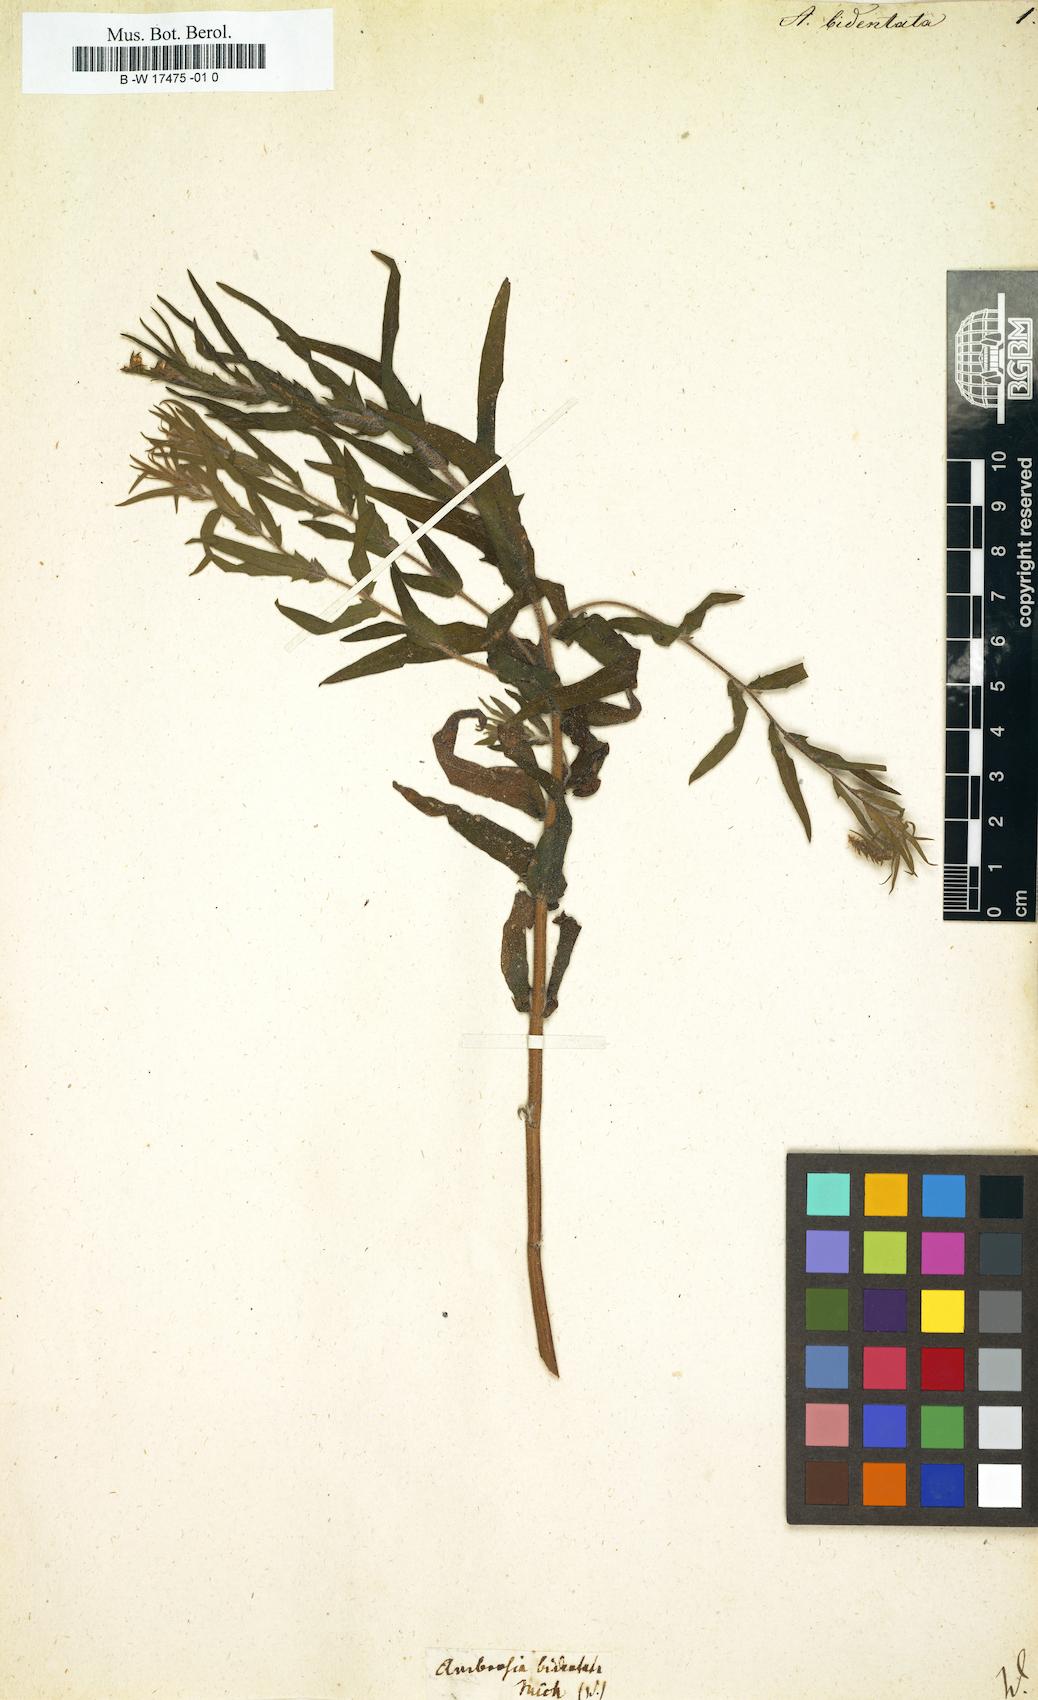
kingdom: Plantae
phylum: Tracheophyta
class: Magnoliopsida
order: Asterales
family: Asteraceae
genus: Ambrosia
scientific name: Ambrosia bidentata
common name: Southern ragweed
